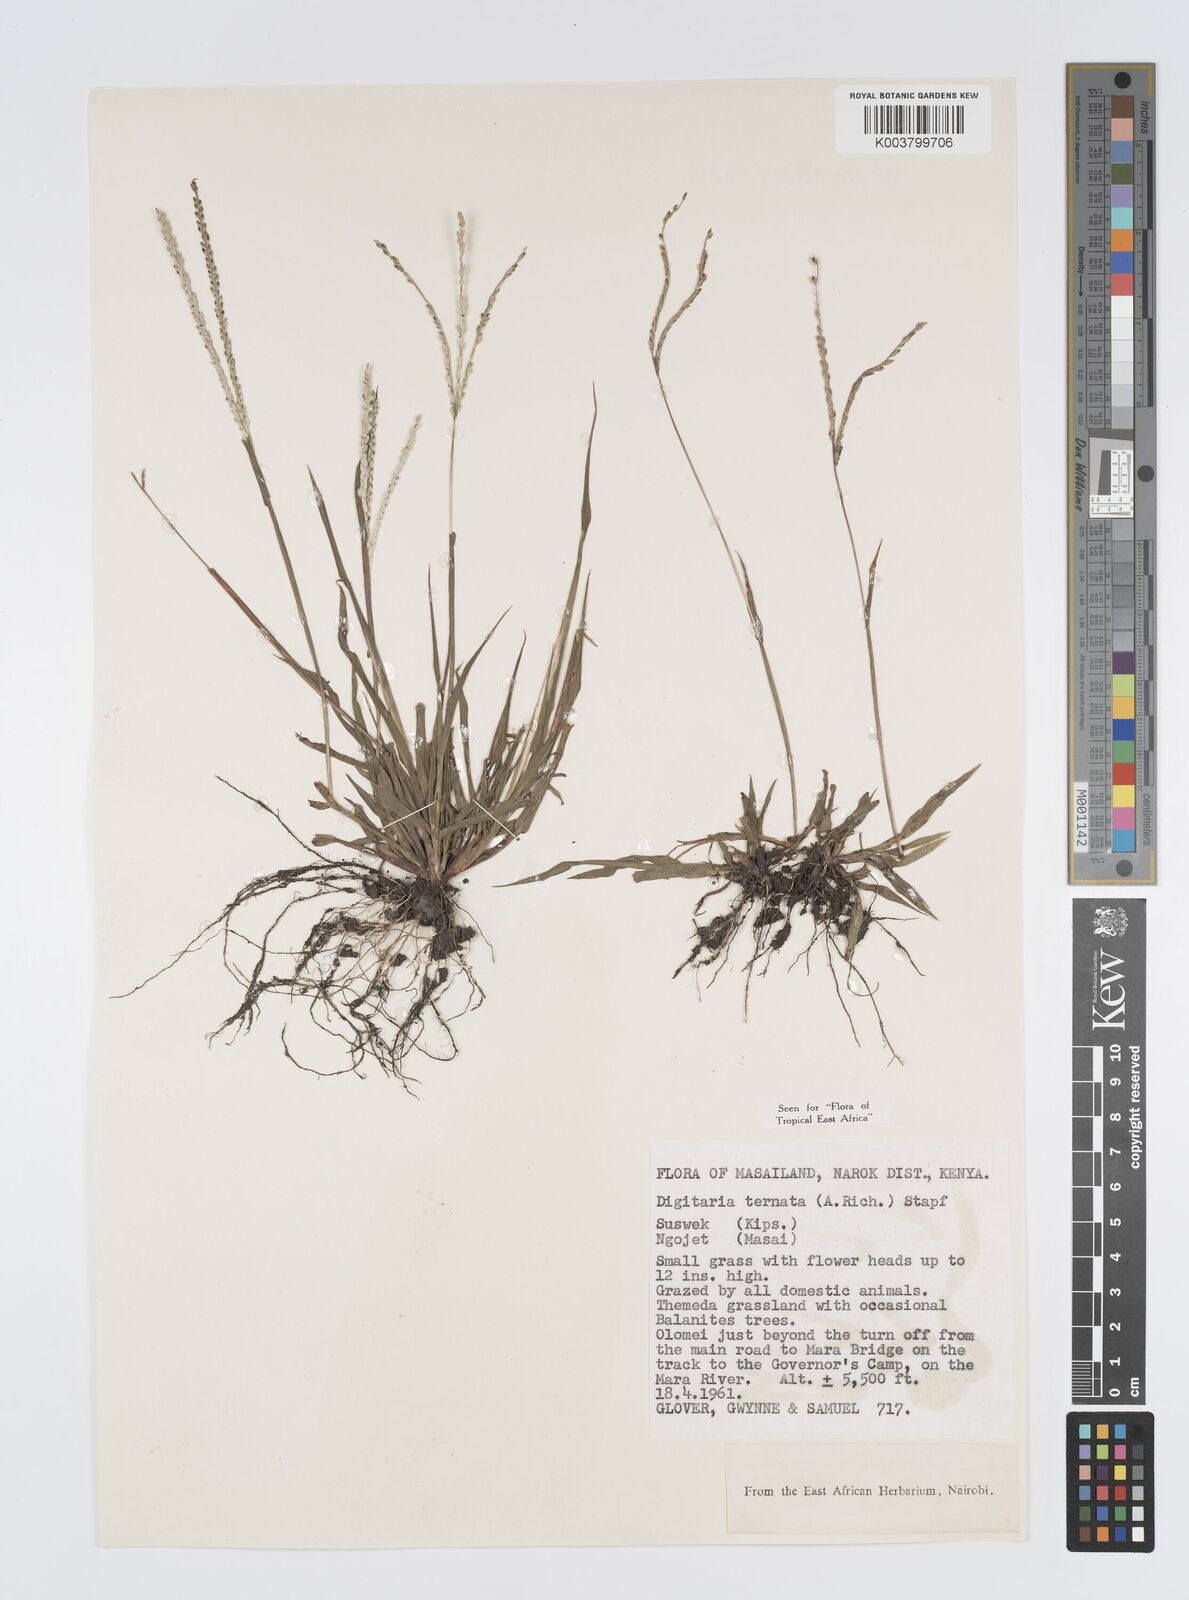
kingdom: Plantae
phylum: Tracheophyta
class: Liliopsida
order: Poales
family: Poaceae
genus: Digitaria
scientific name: Digitaria ternata
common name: Blackseed crabgrass
